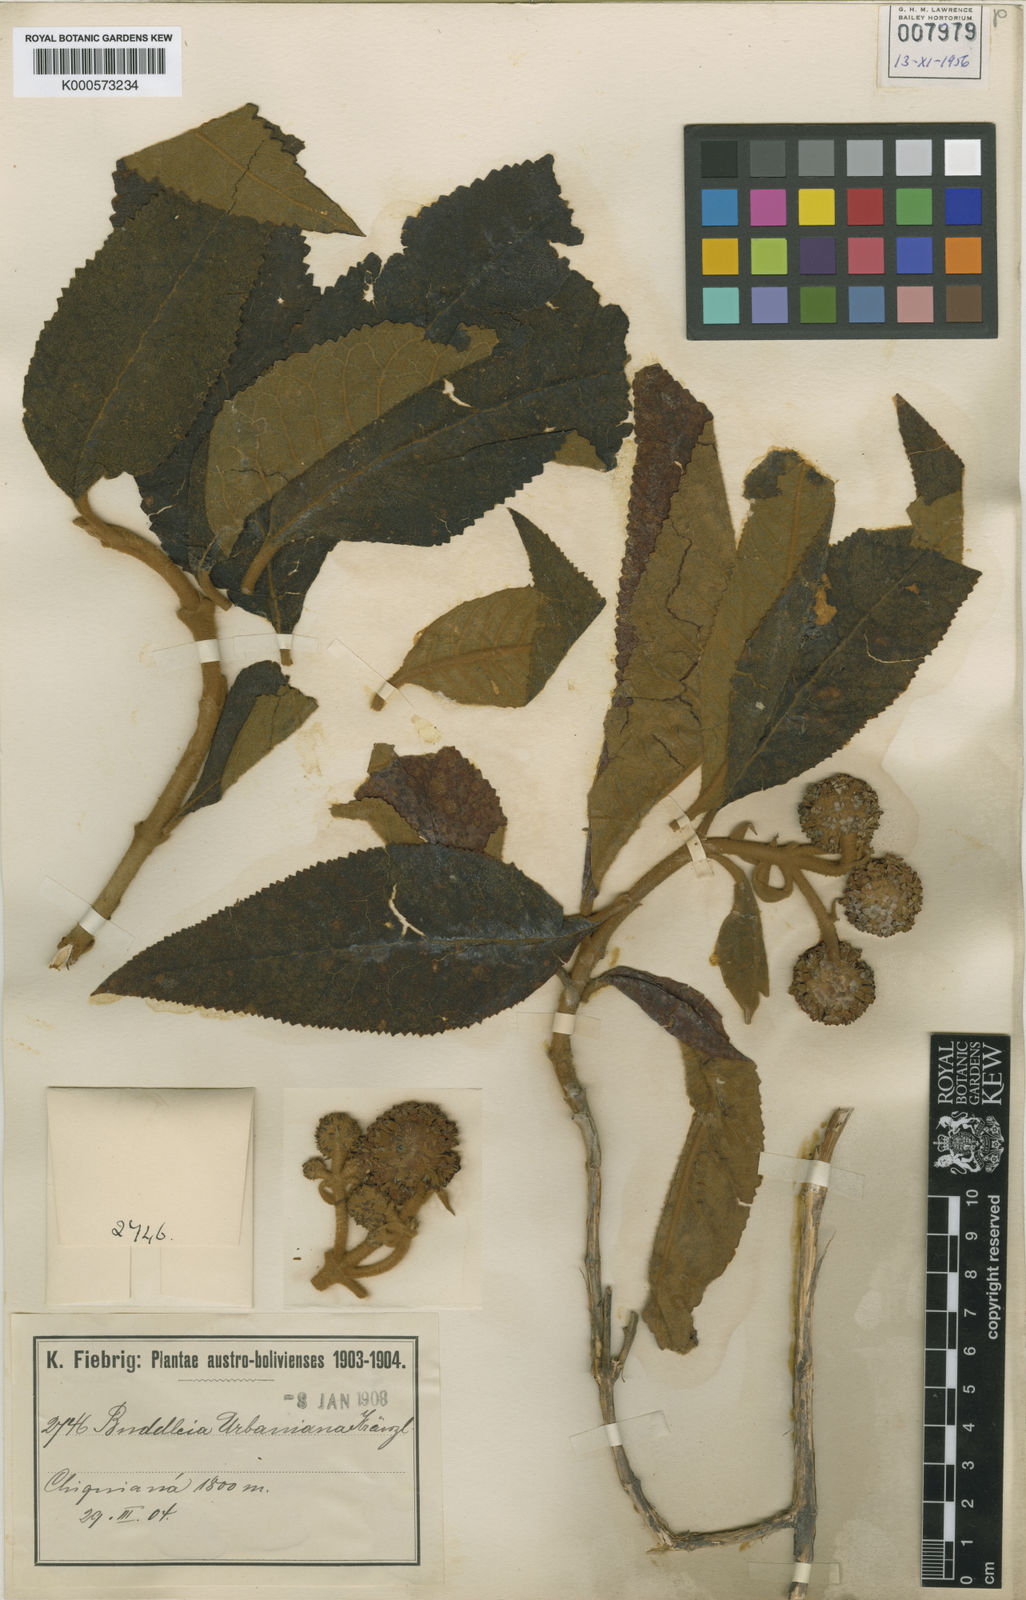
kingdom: Plantae
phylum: Tracheophyta
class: Magnoliopsida
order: Lamiales
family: Scrophulariaceae
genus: Buddleja
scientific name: Buddleja anchoensis
